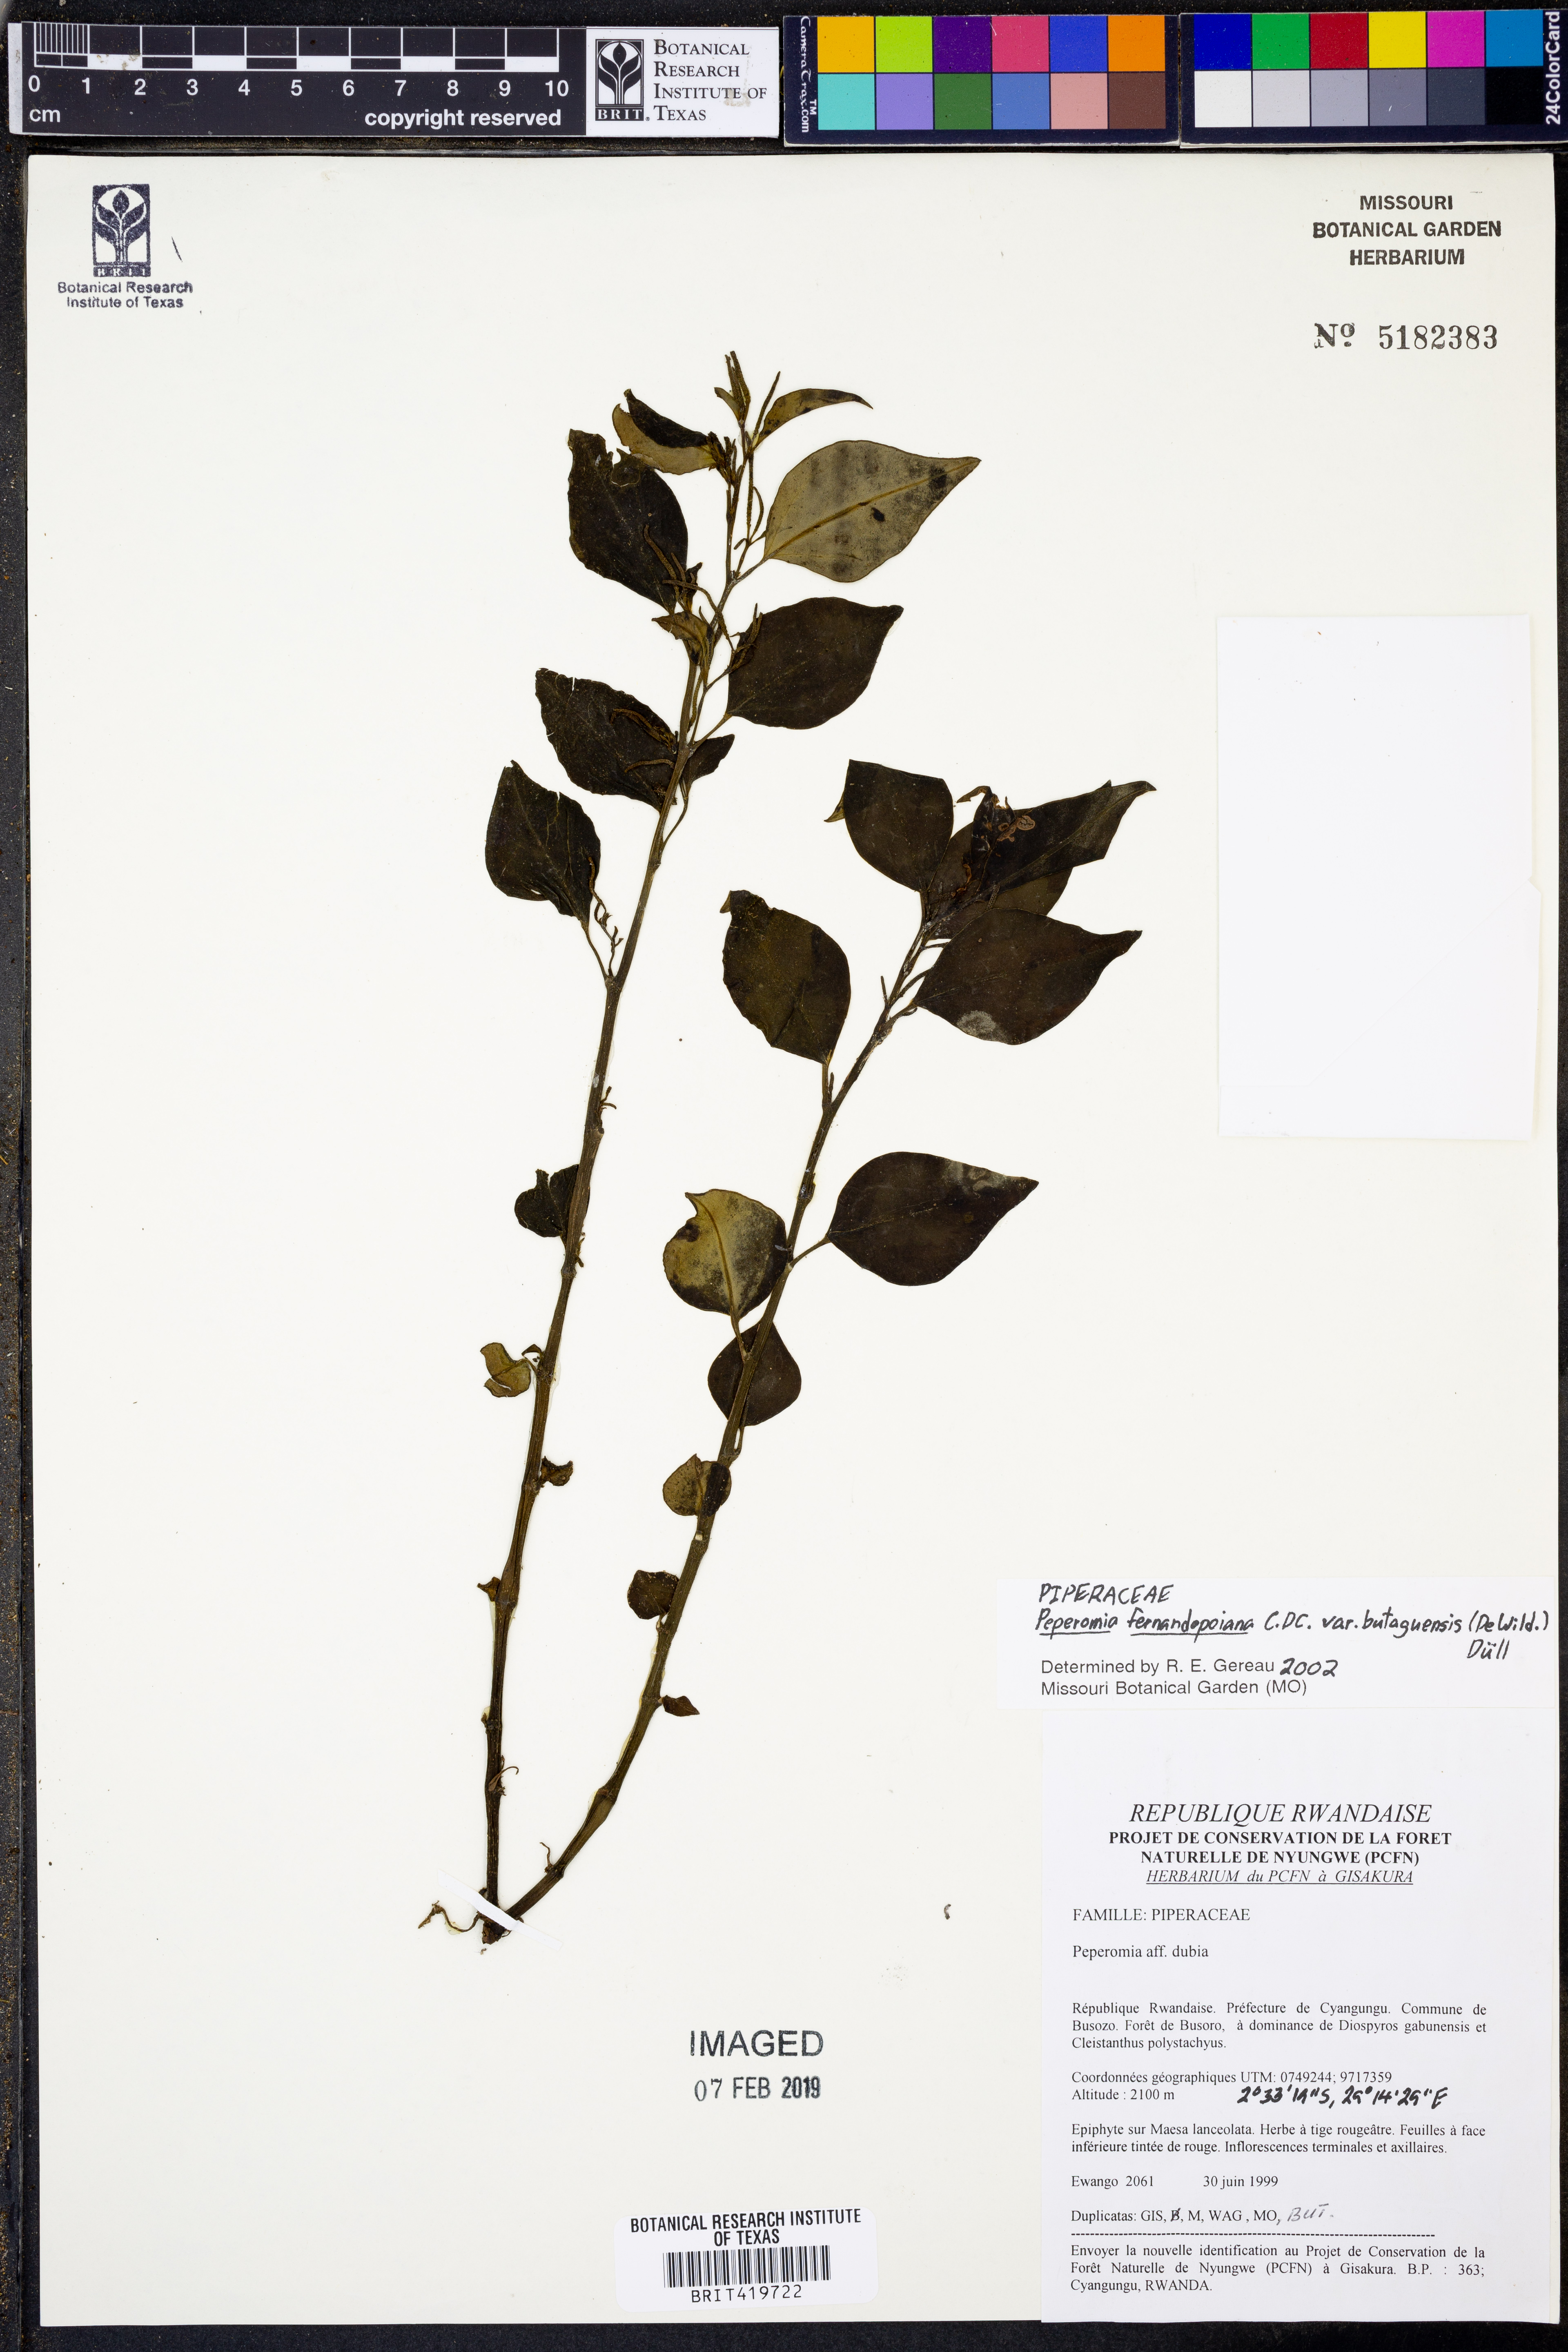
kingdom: Plantae
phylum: Tracheophyta
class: Magnoliopsida
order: Piperales
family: Piperaceae
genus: Peperomia
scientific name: Peperomia fernandopoiana
